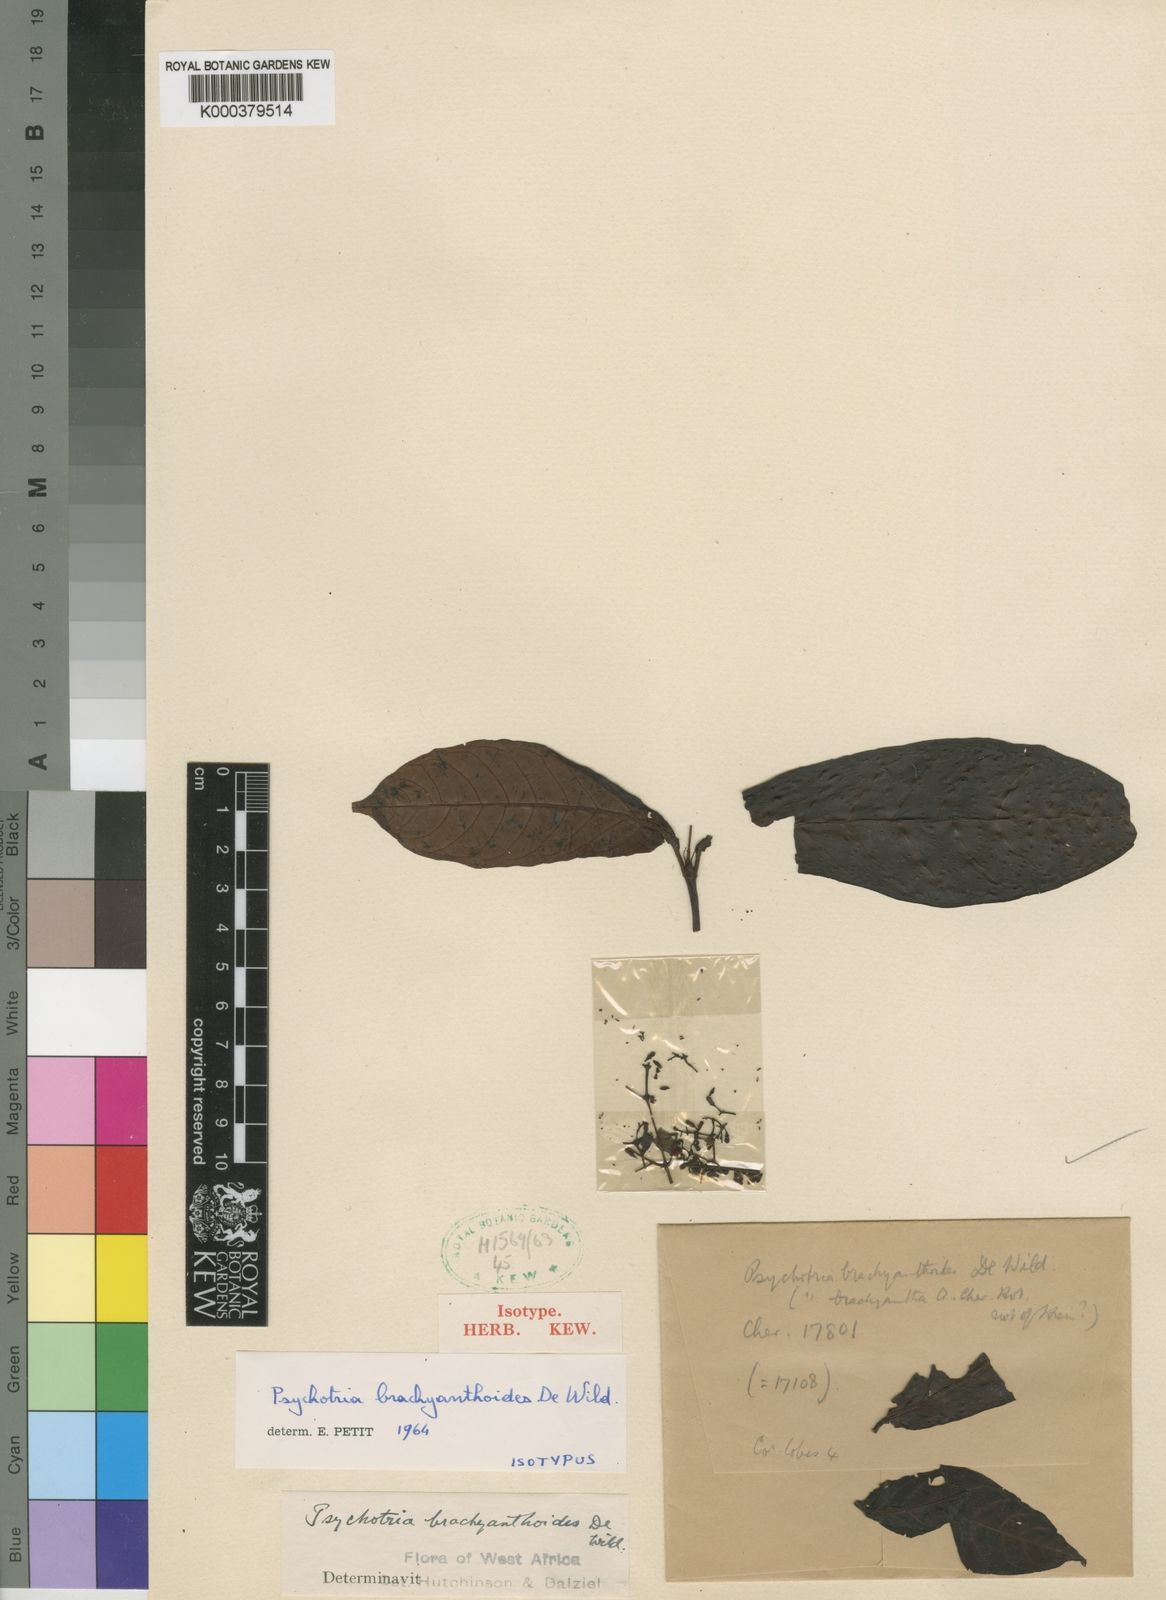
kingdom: Plantae
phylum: Tracheophyta
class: Magnoliopsida
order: Gentianales
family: Rubiaceae
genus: Psychotria
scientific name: Psychotria brachyanthoides
